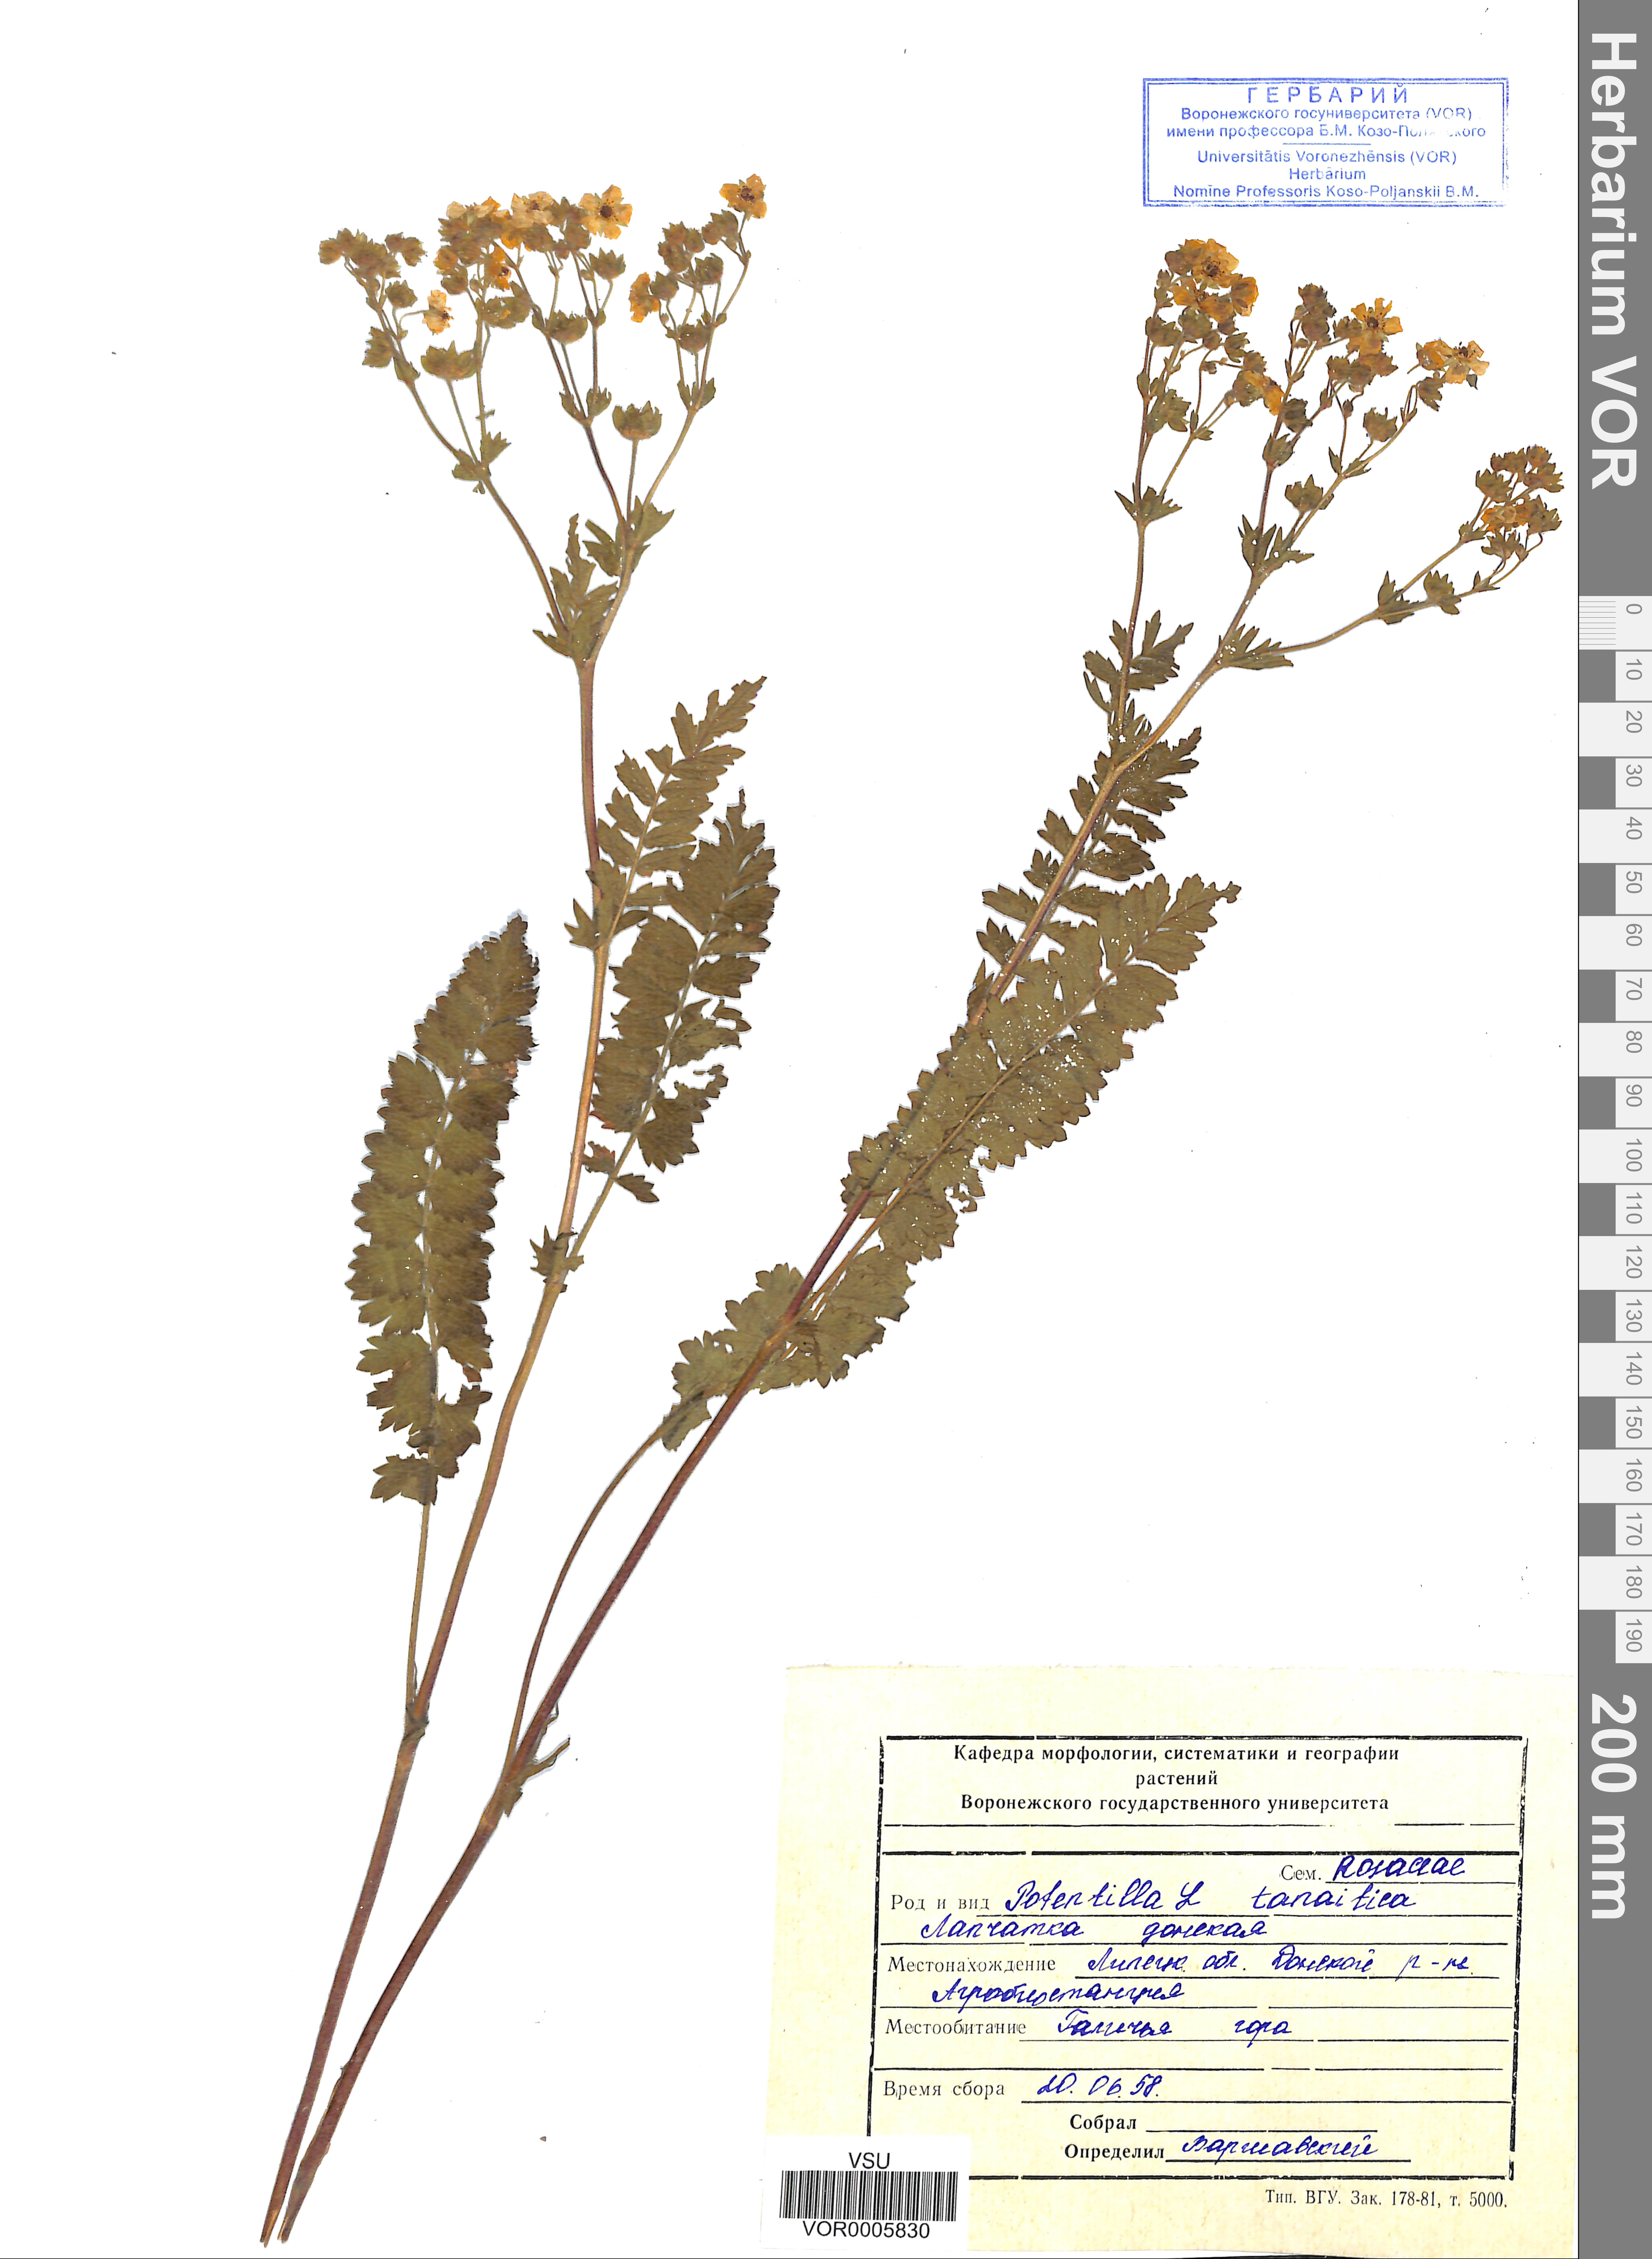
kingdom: Plantae
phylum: Tracheophyta
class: Magnoliopsida
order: Rosales
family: Rosaceae
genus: Potentilla
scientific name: Potentilla tanaitica
